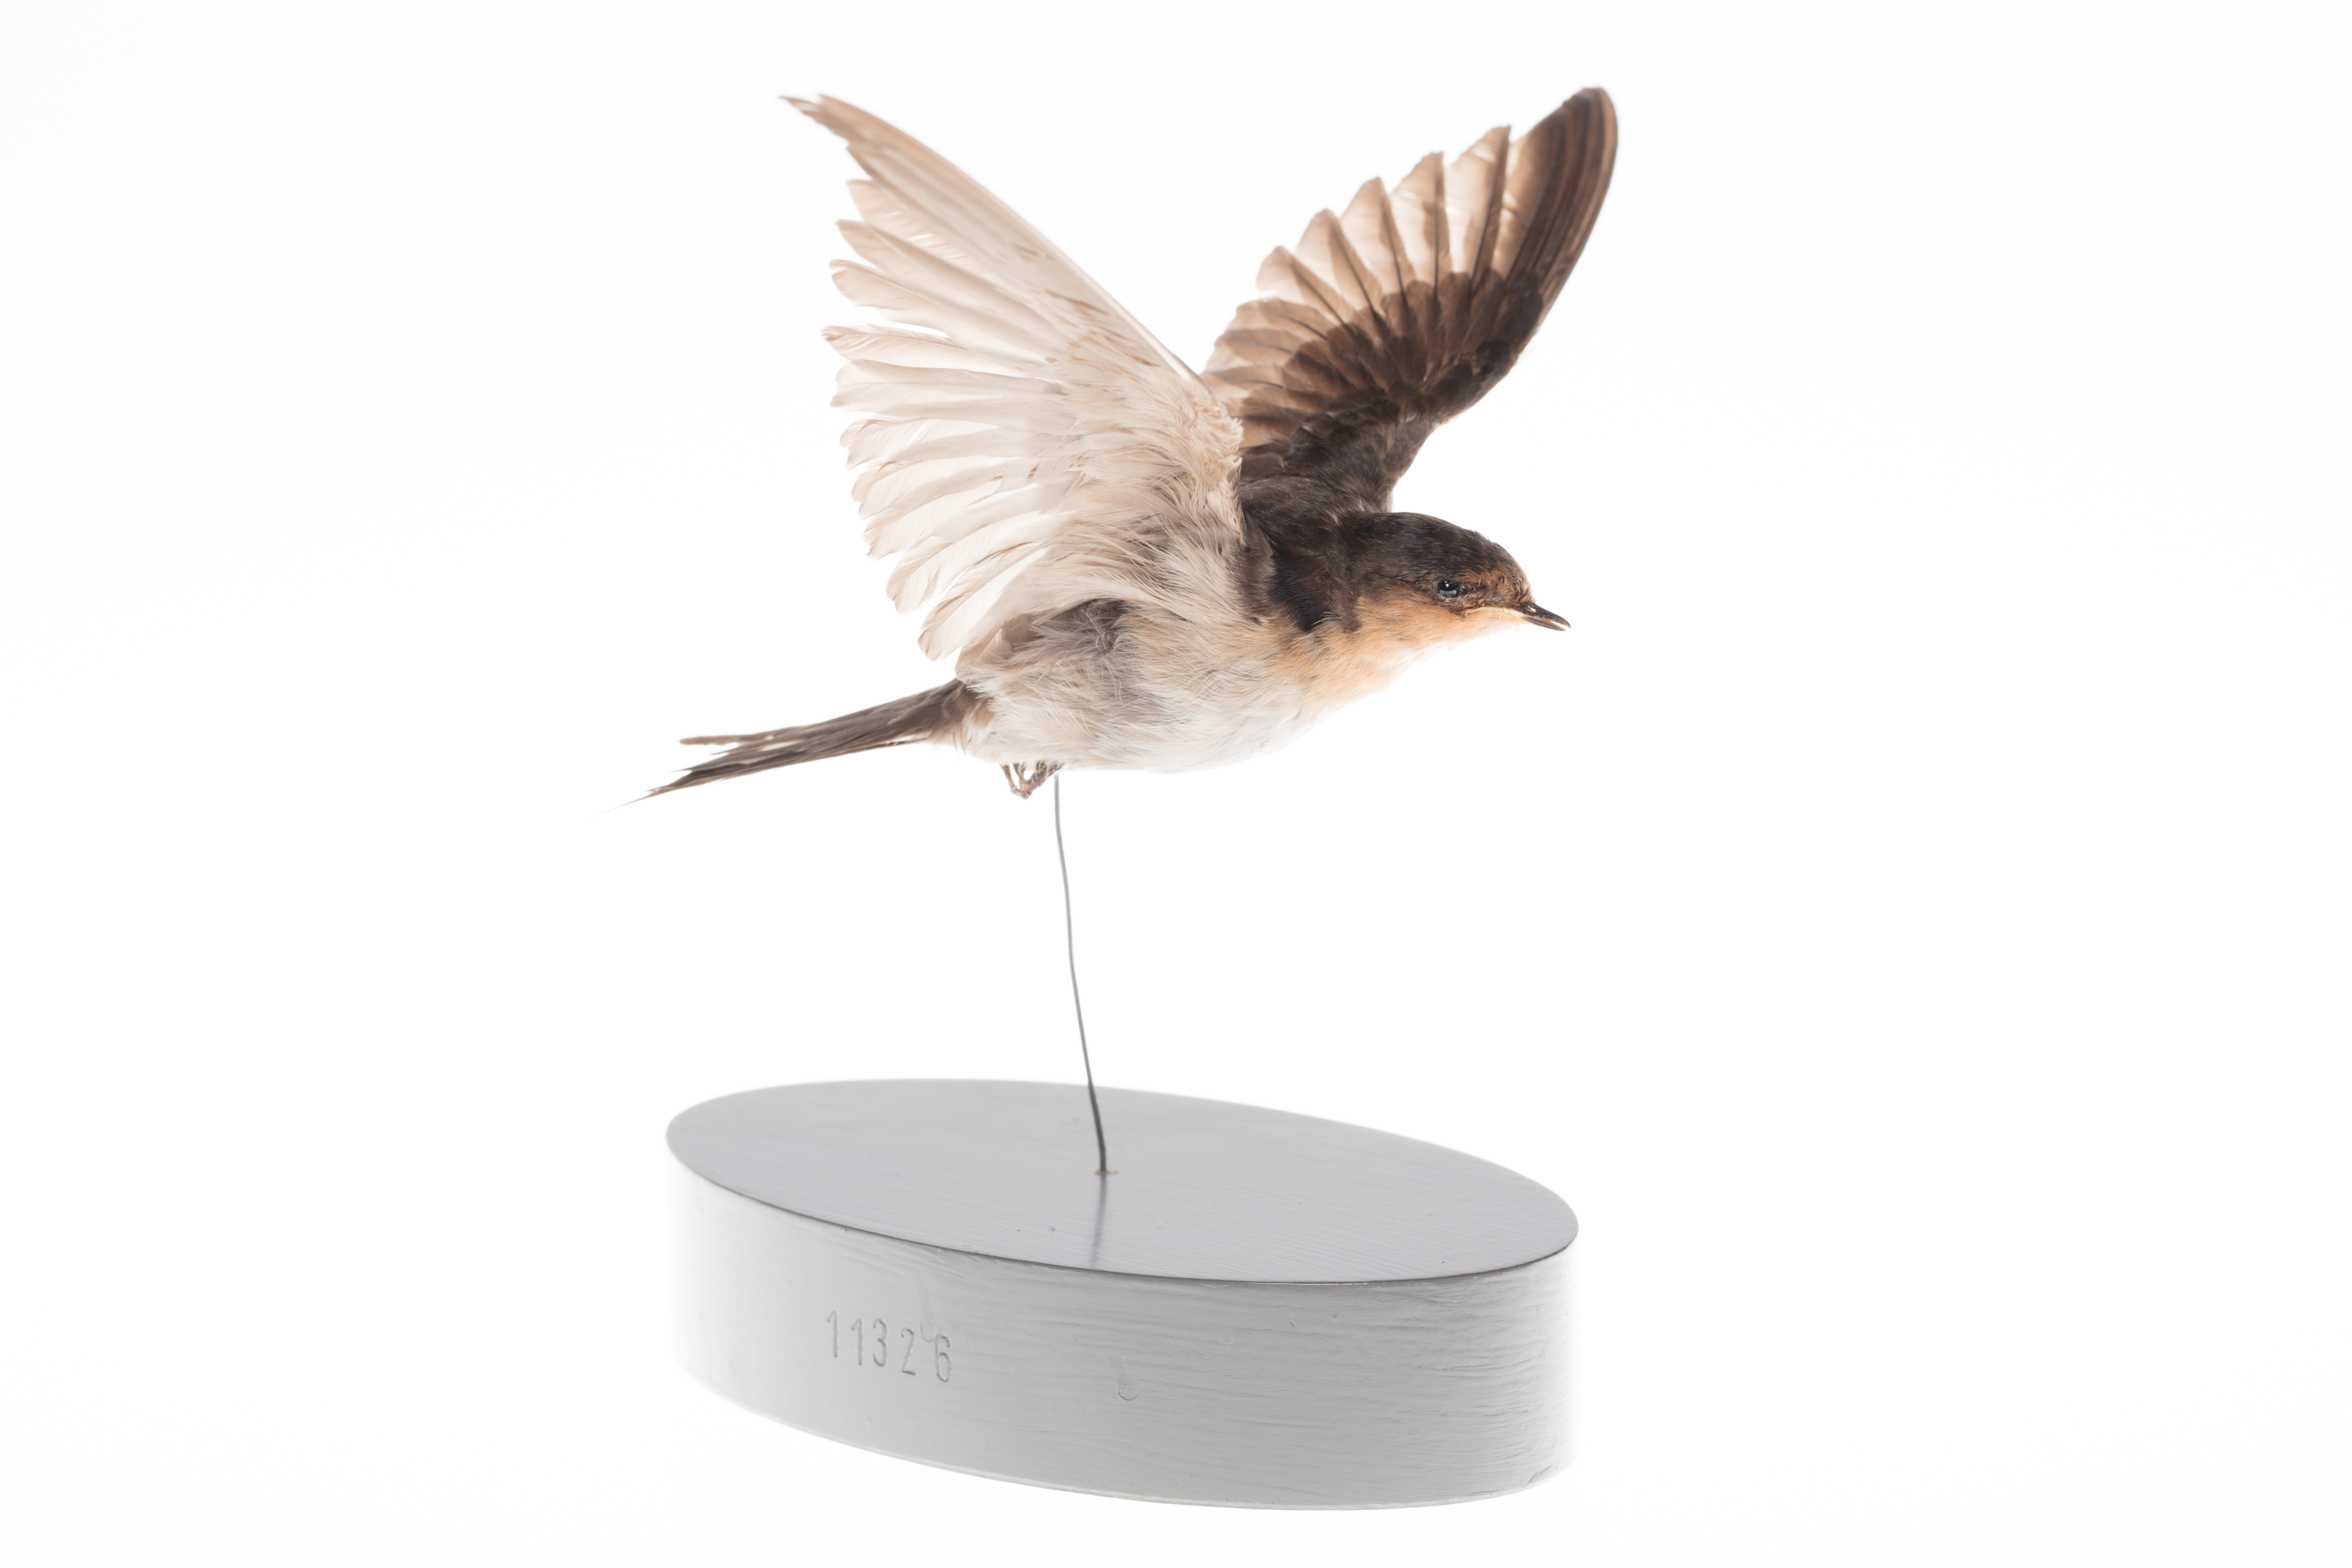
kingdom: Animalia
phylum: Chordata
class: Aves
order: Passeriformes
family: Hirundinidae
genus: Hirundo
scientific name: Hirundo neoxena
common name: Welcome swallow
